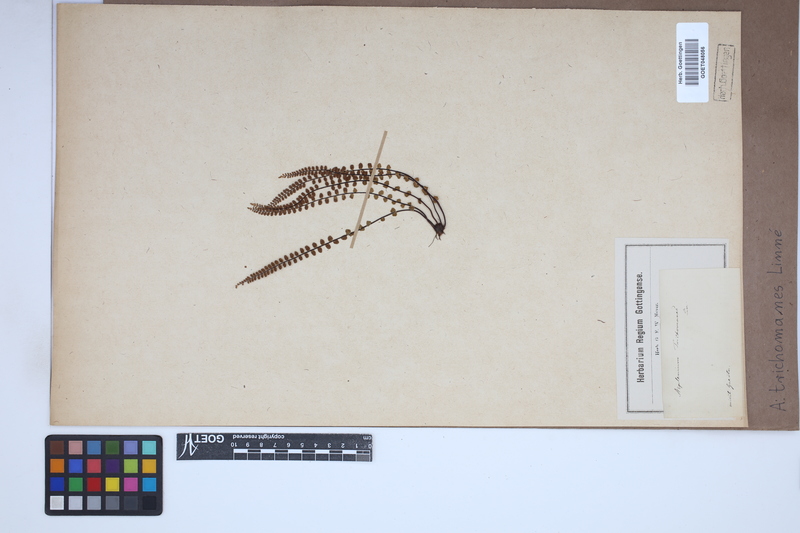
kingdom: Plantae
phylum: Tracheophyta
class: Polypodiopsida
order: Polypodiales
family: Aspleniaceae
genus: Asplenium
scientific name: Asplenium trichomanes
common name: Maidenhair spleenwort
